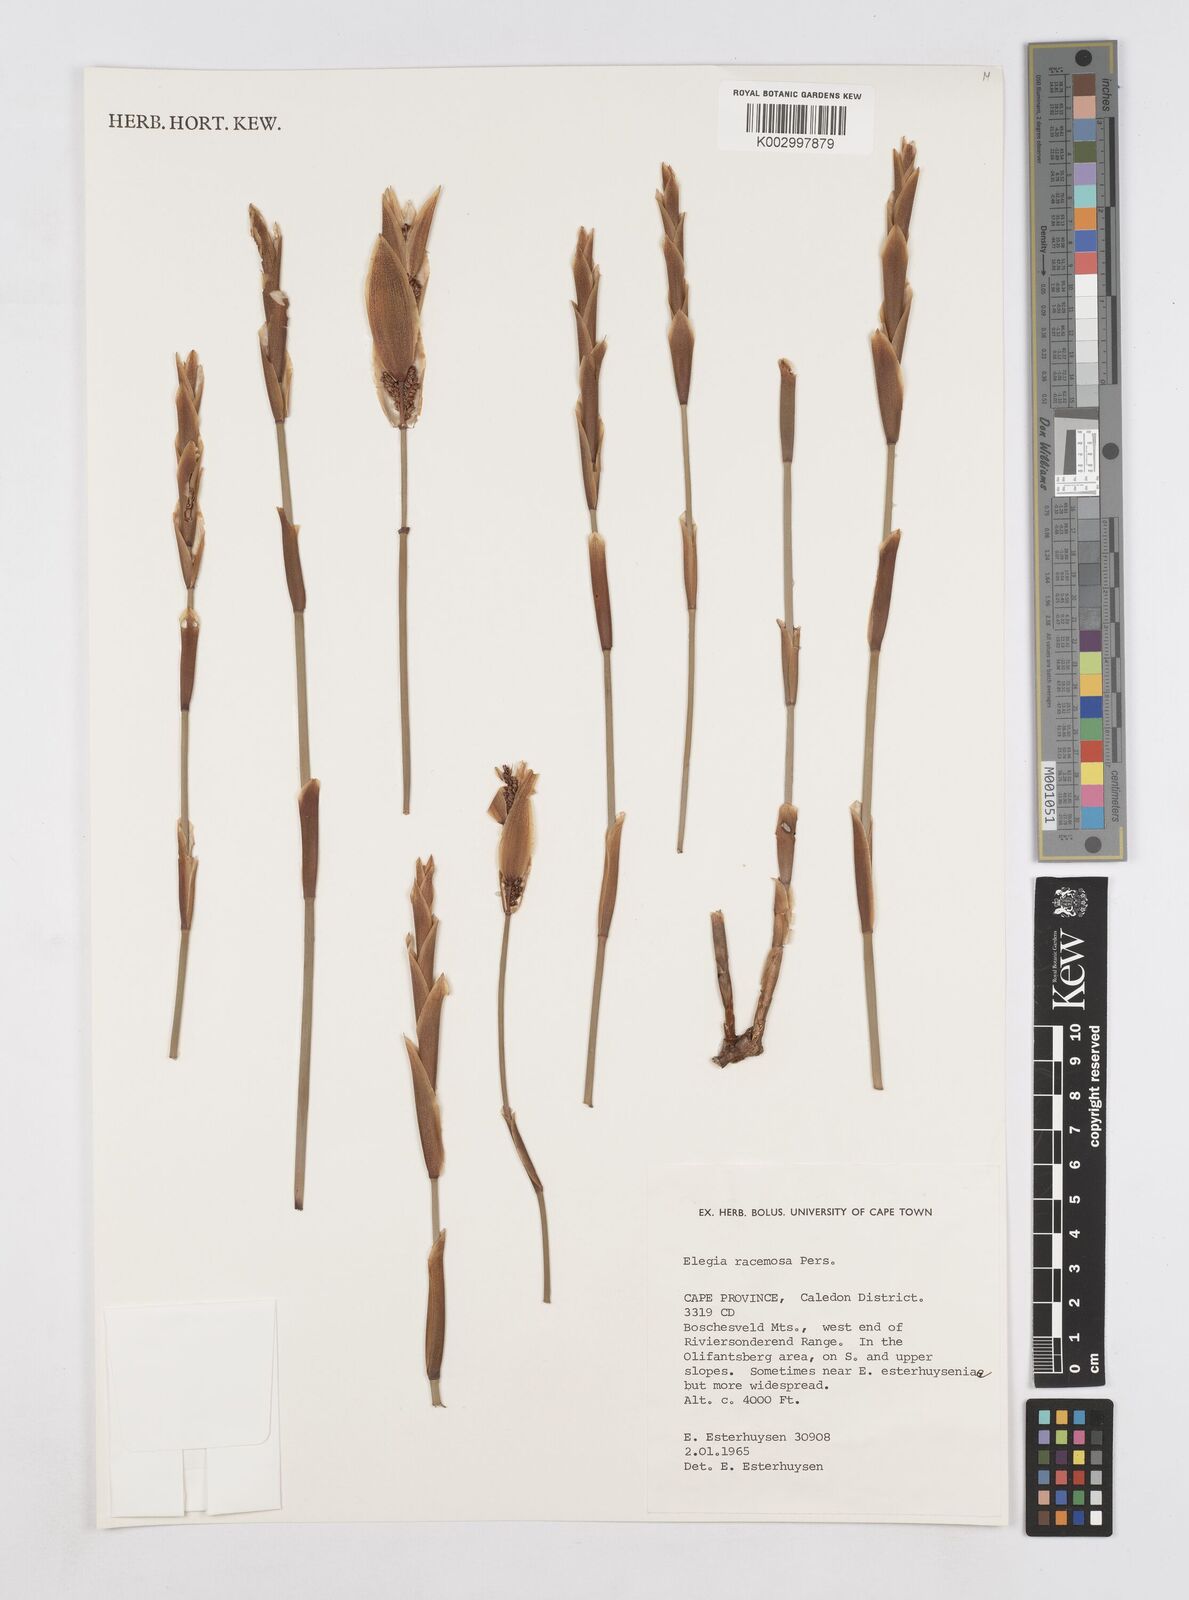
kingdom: Plantae
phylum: Tracheophyta
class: Liliopsida
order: Poales
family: Restionaceae
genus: Elegia
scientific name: Elegia racemosa
